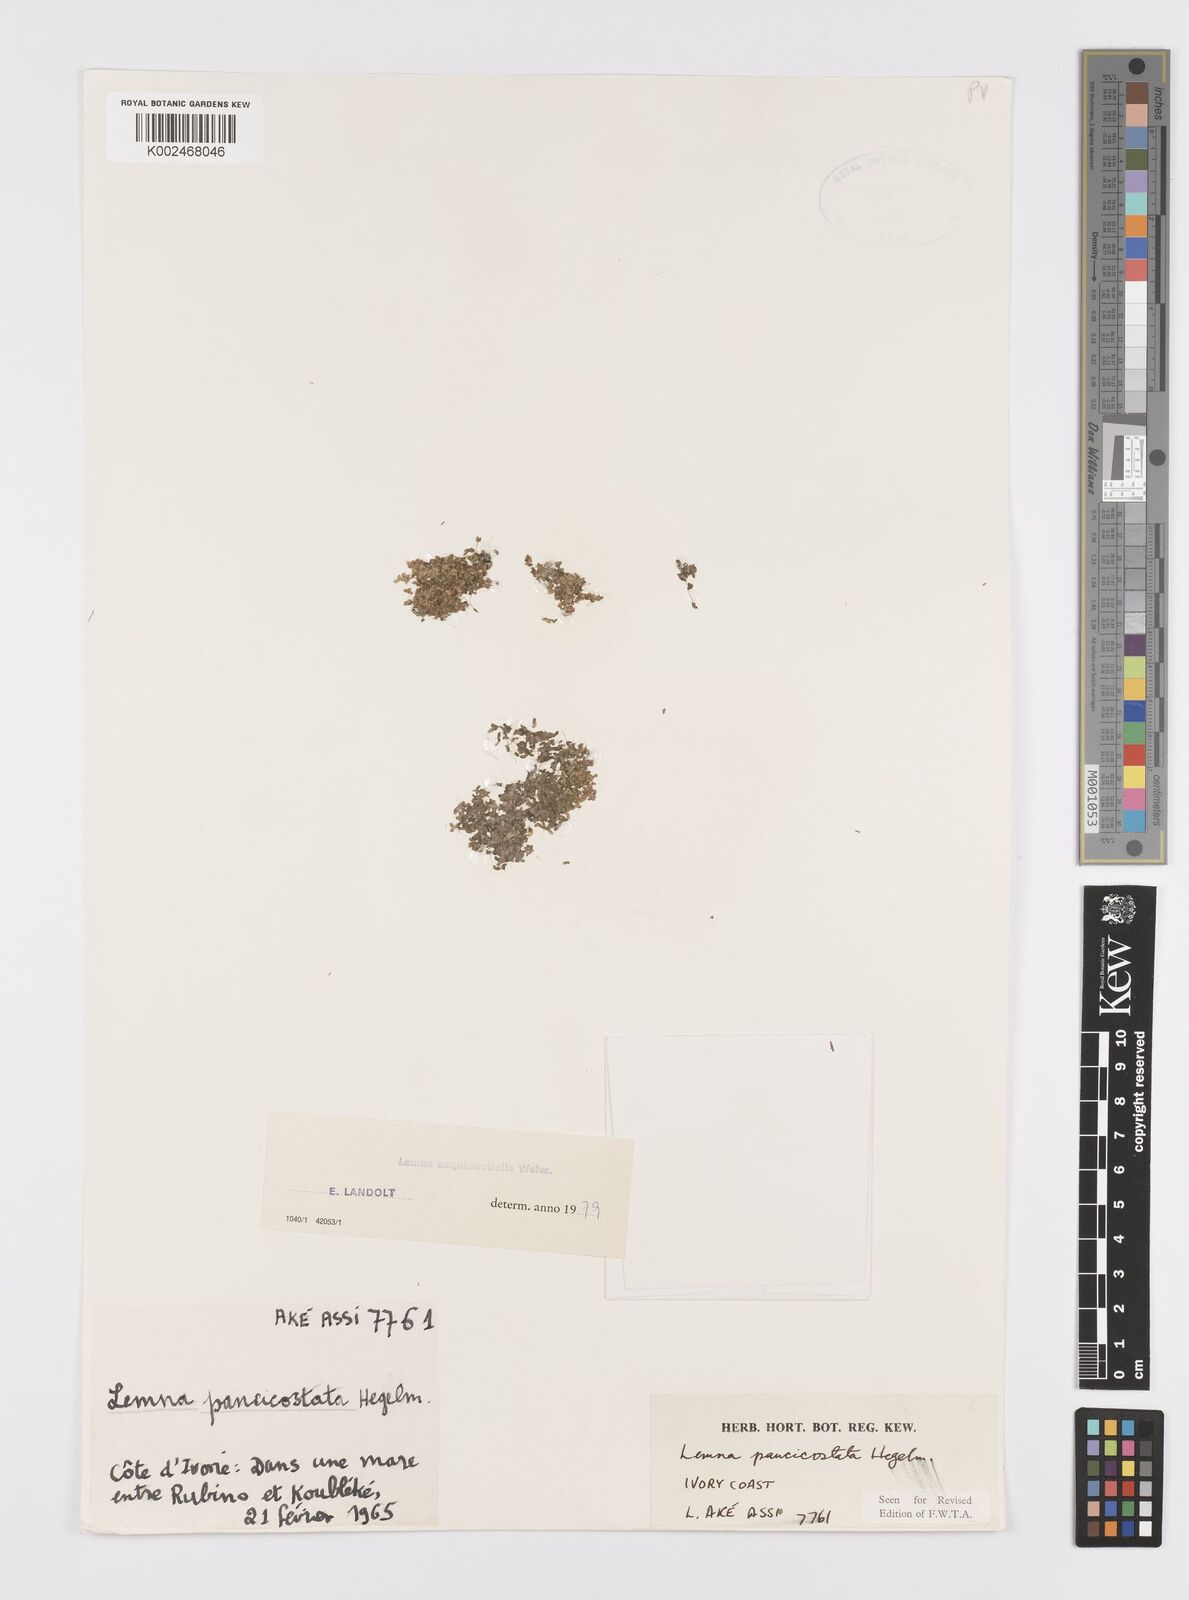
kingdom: Plantae
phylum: Tracheophyta
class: Liliopsida
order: Alismatales
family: Araceae
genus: Lemna
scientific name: Lemna aequinoctialis
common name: Duckweed
